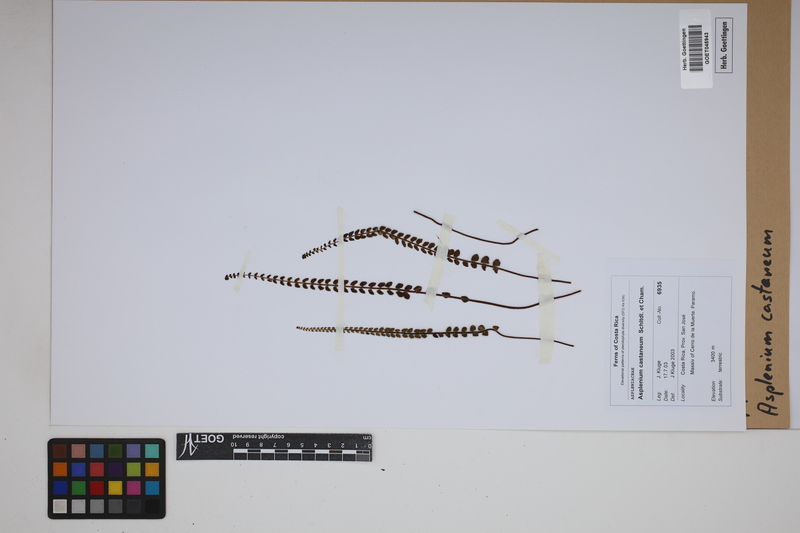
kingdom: Plantae
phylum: Tracheophyta
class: Polypodiopsida
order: Polypodiales
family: Aspleniaceae
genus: Asplenium
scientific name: Asplenium castaneum
